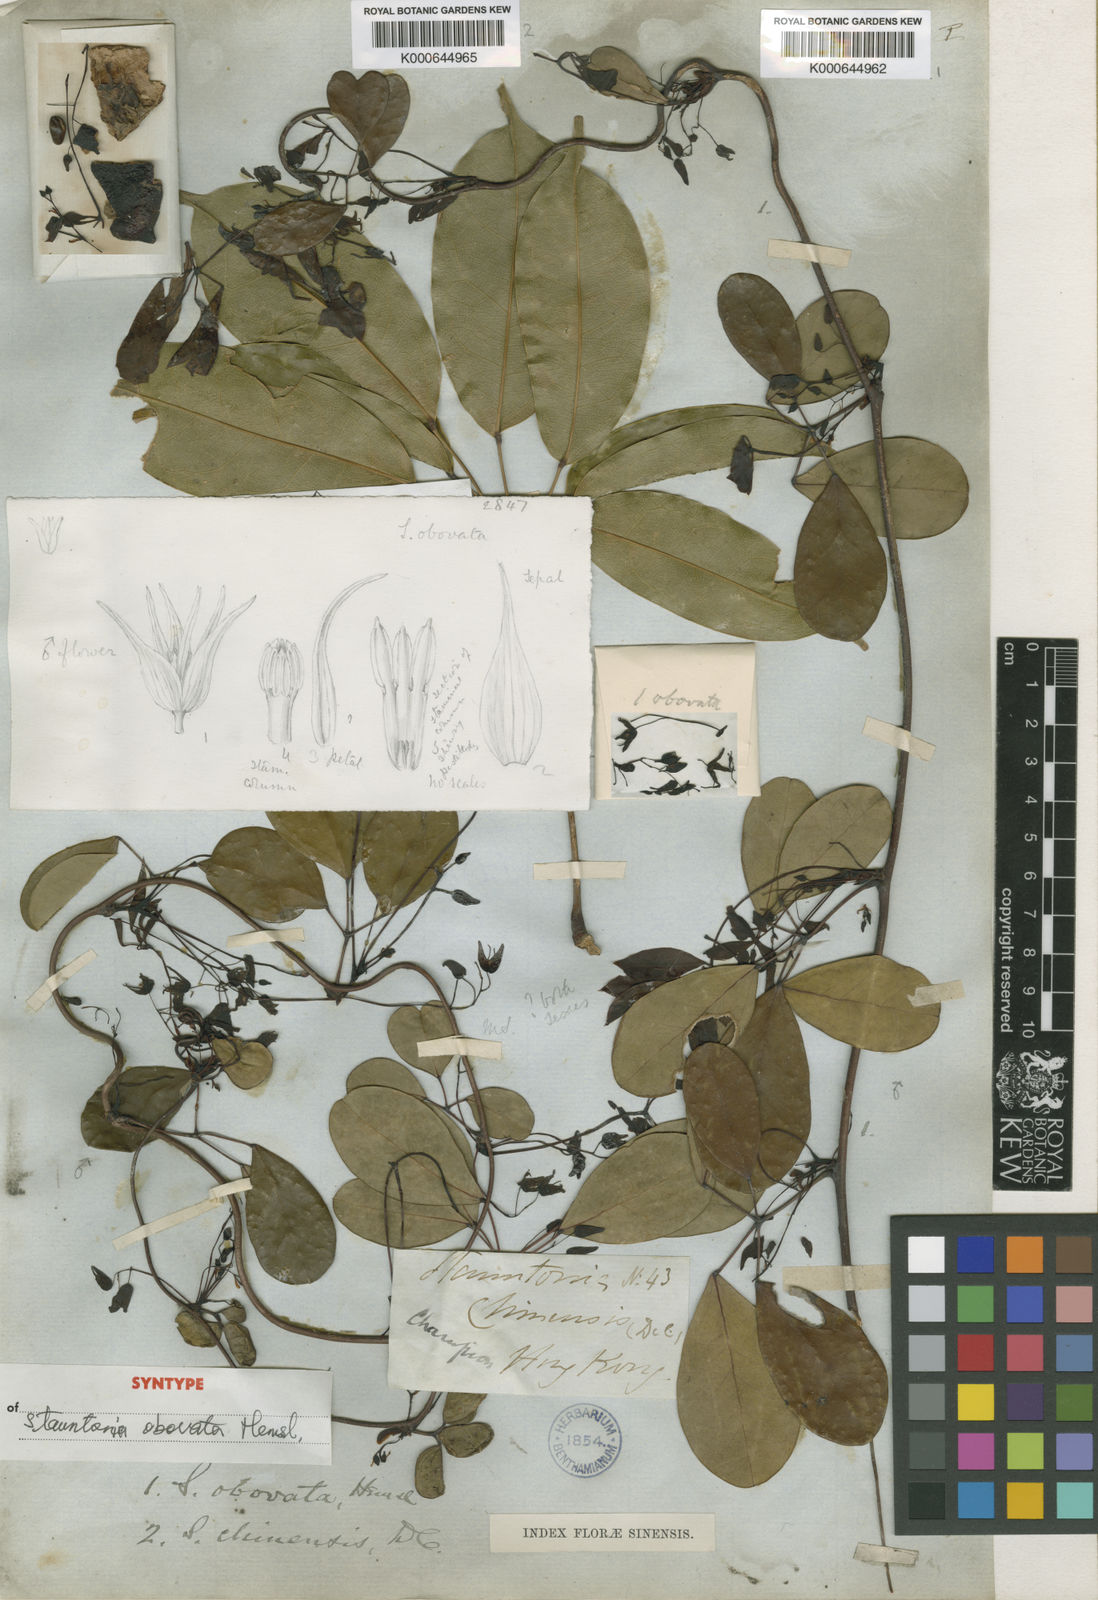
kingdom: Plantae
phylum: Tracheophyta
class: Magnoliopsida
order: Ranunculales
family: Lardizabalaceae
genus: Stauntonia
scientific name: Stauntonia obovata
